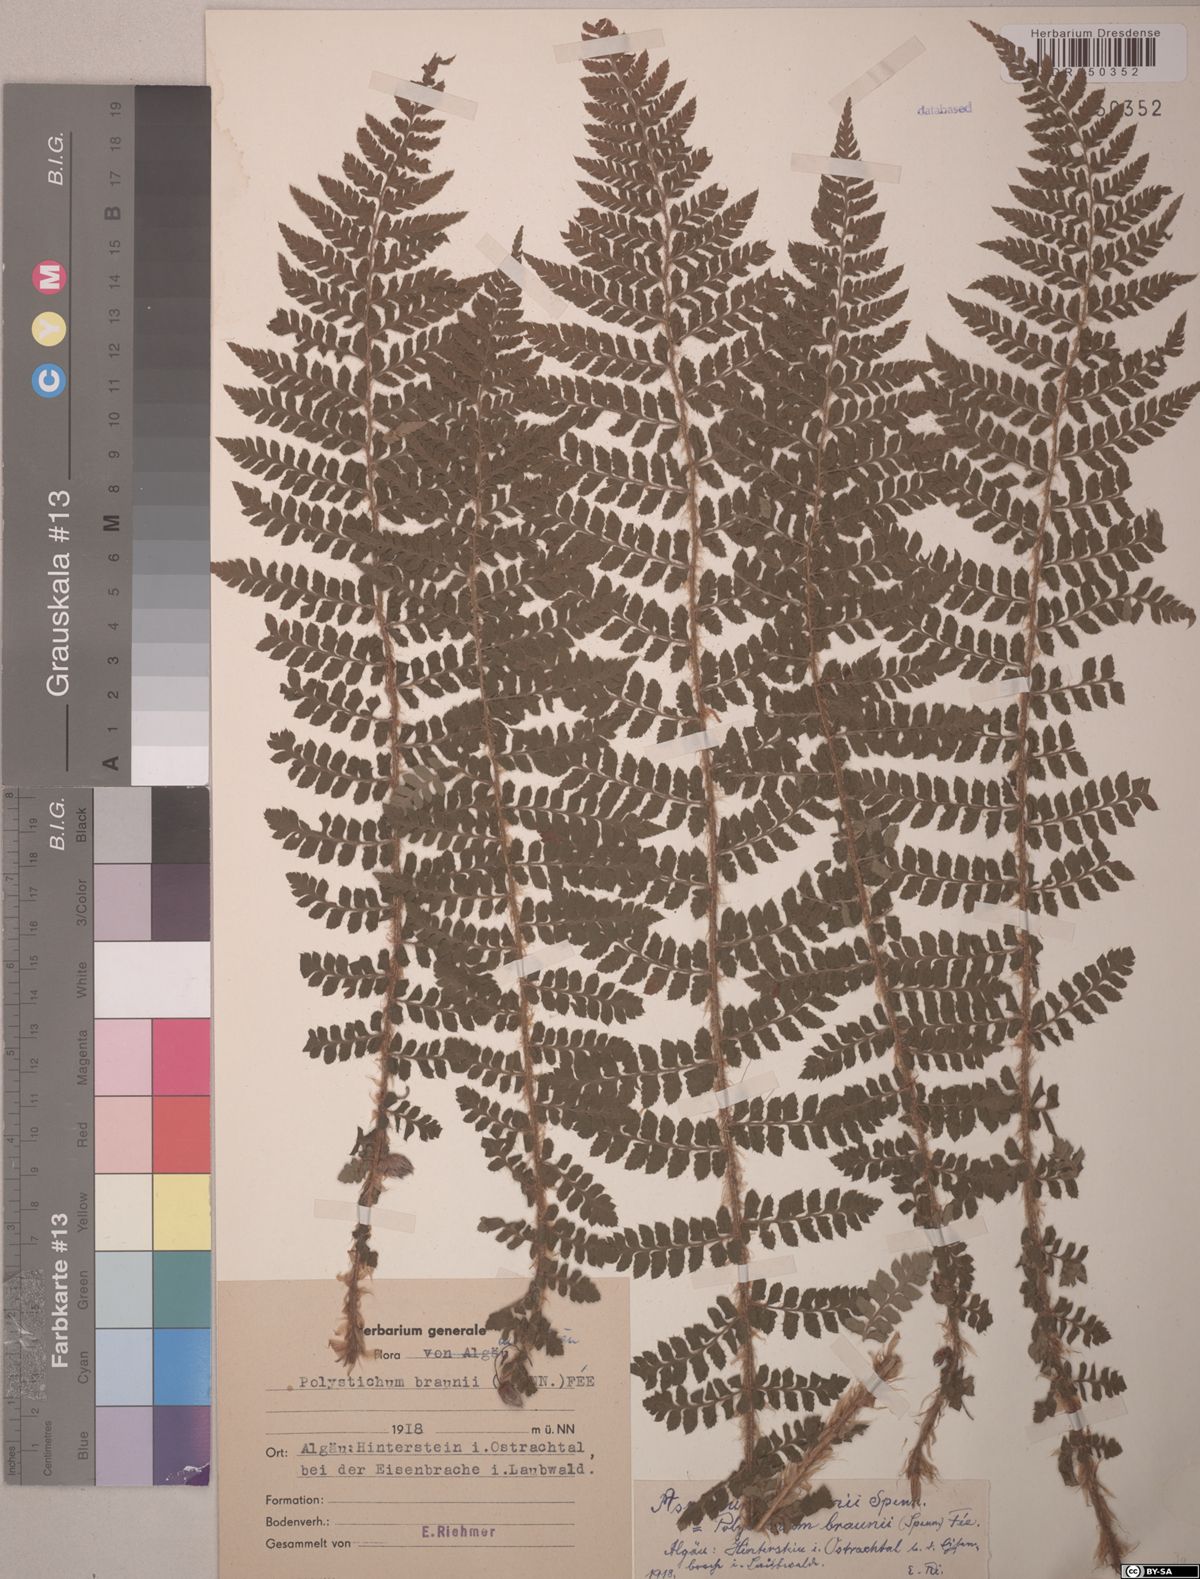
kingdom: Plantae
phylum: Tracheophyta
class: Polypodiopsida
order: Polypodiales
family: Dryopteridaceae
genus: Polystichum
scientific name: Polystichum braunii
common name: Braun's holly fern
